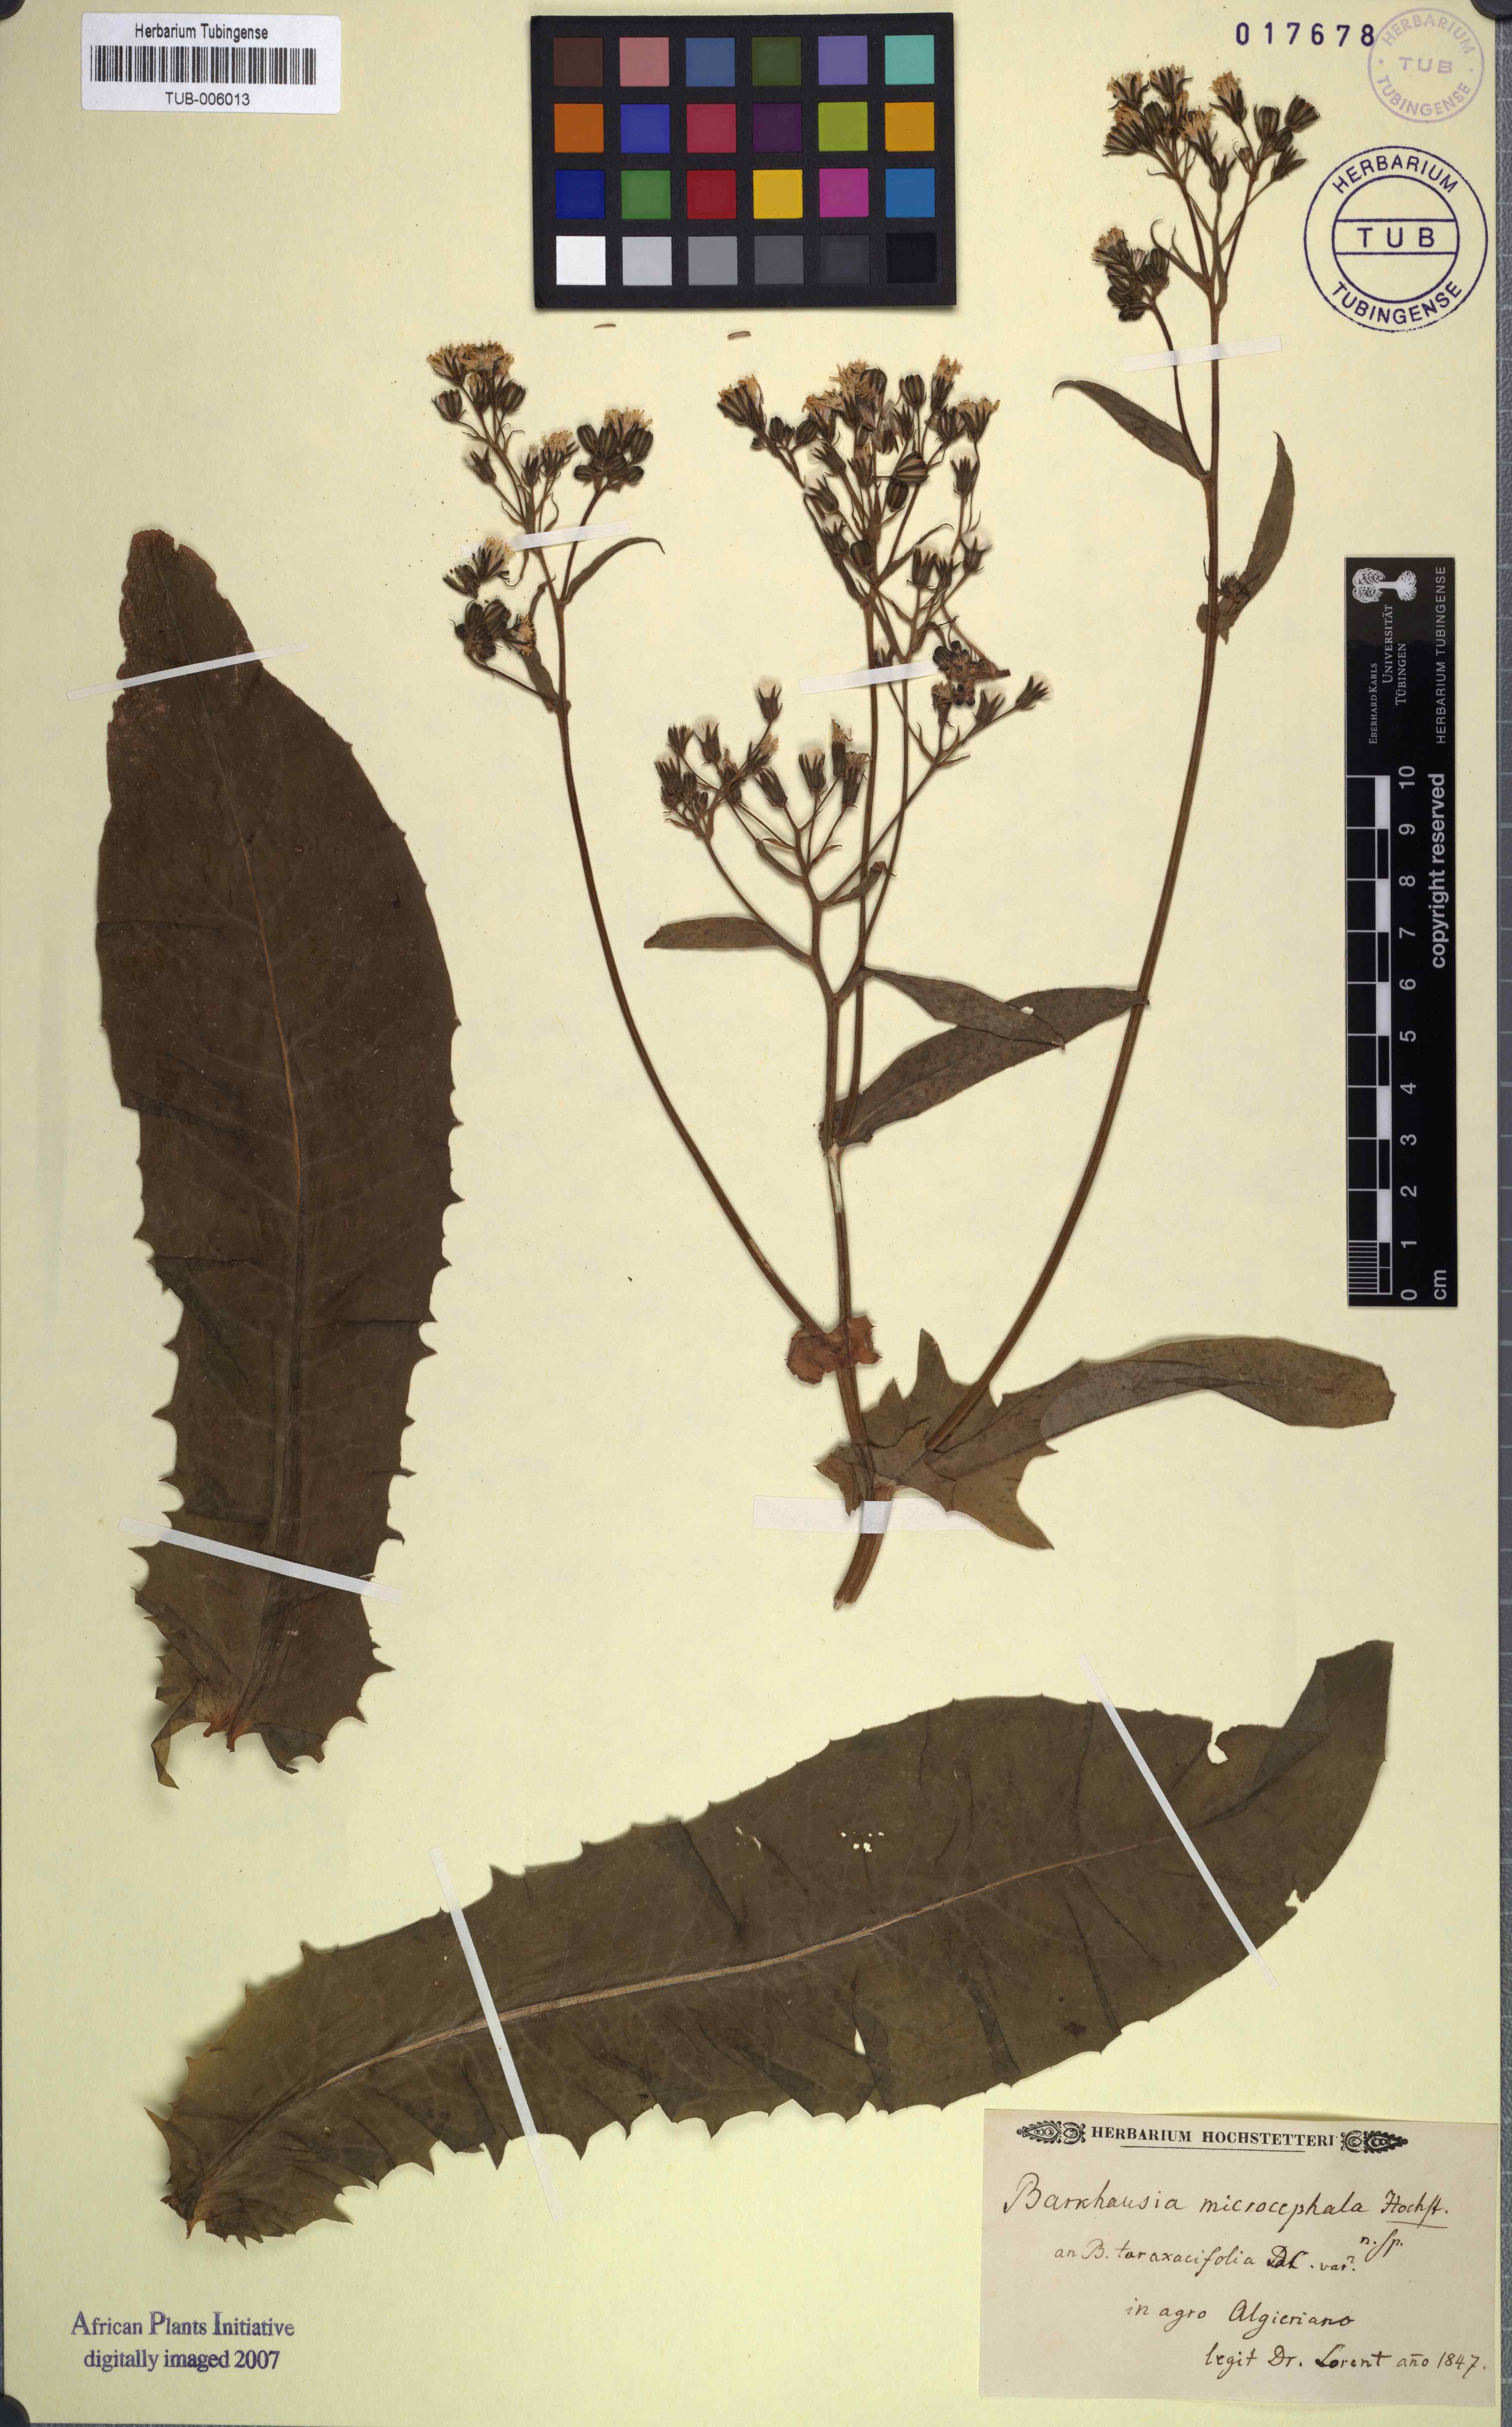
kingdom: Plantae
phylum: Tracheophyta
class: Magnoliopsida
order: Asterales
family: Asteraceae
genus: Crepis
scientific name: Crepis vesicaria
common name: Beaked hawksbeard
